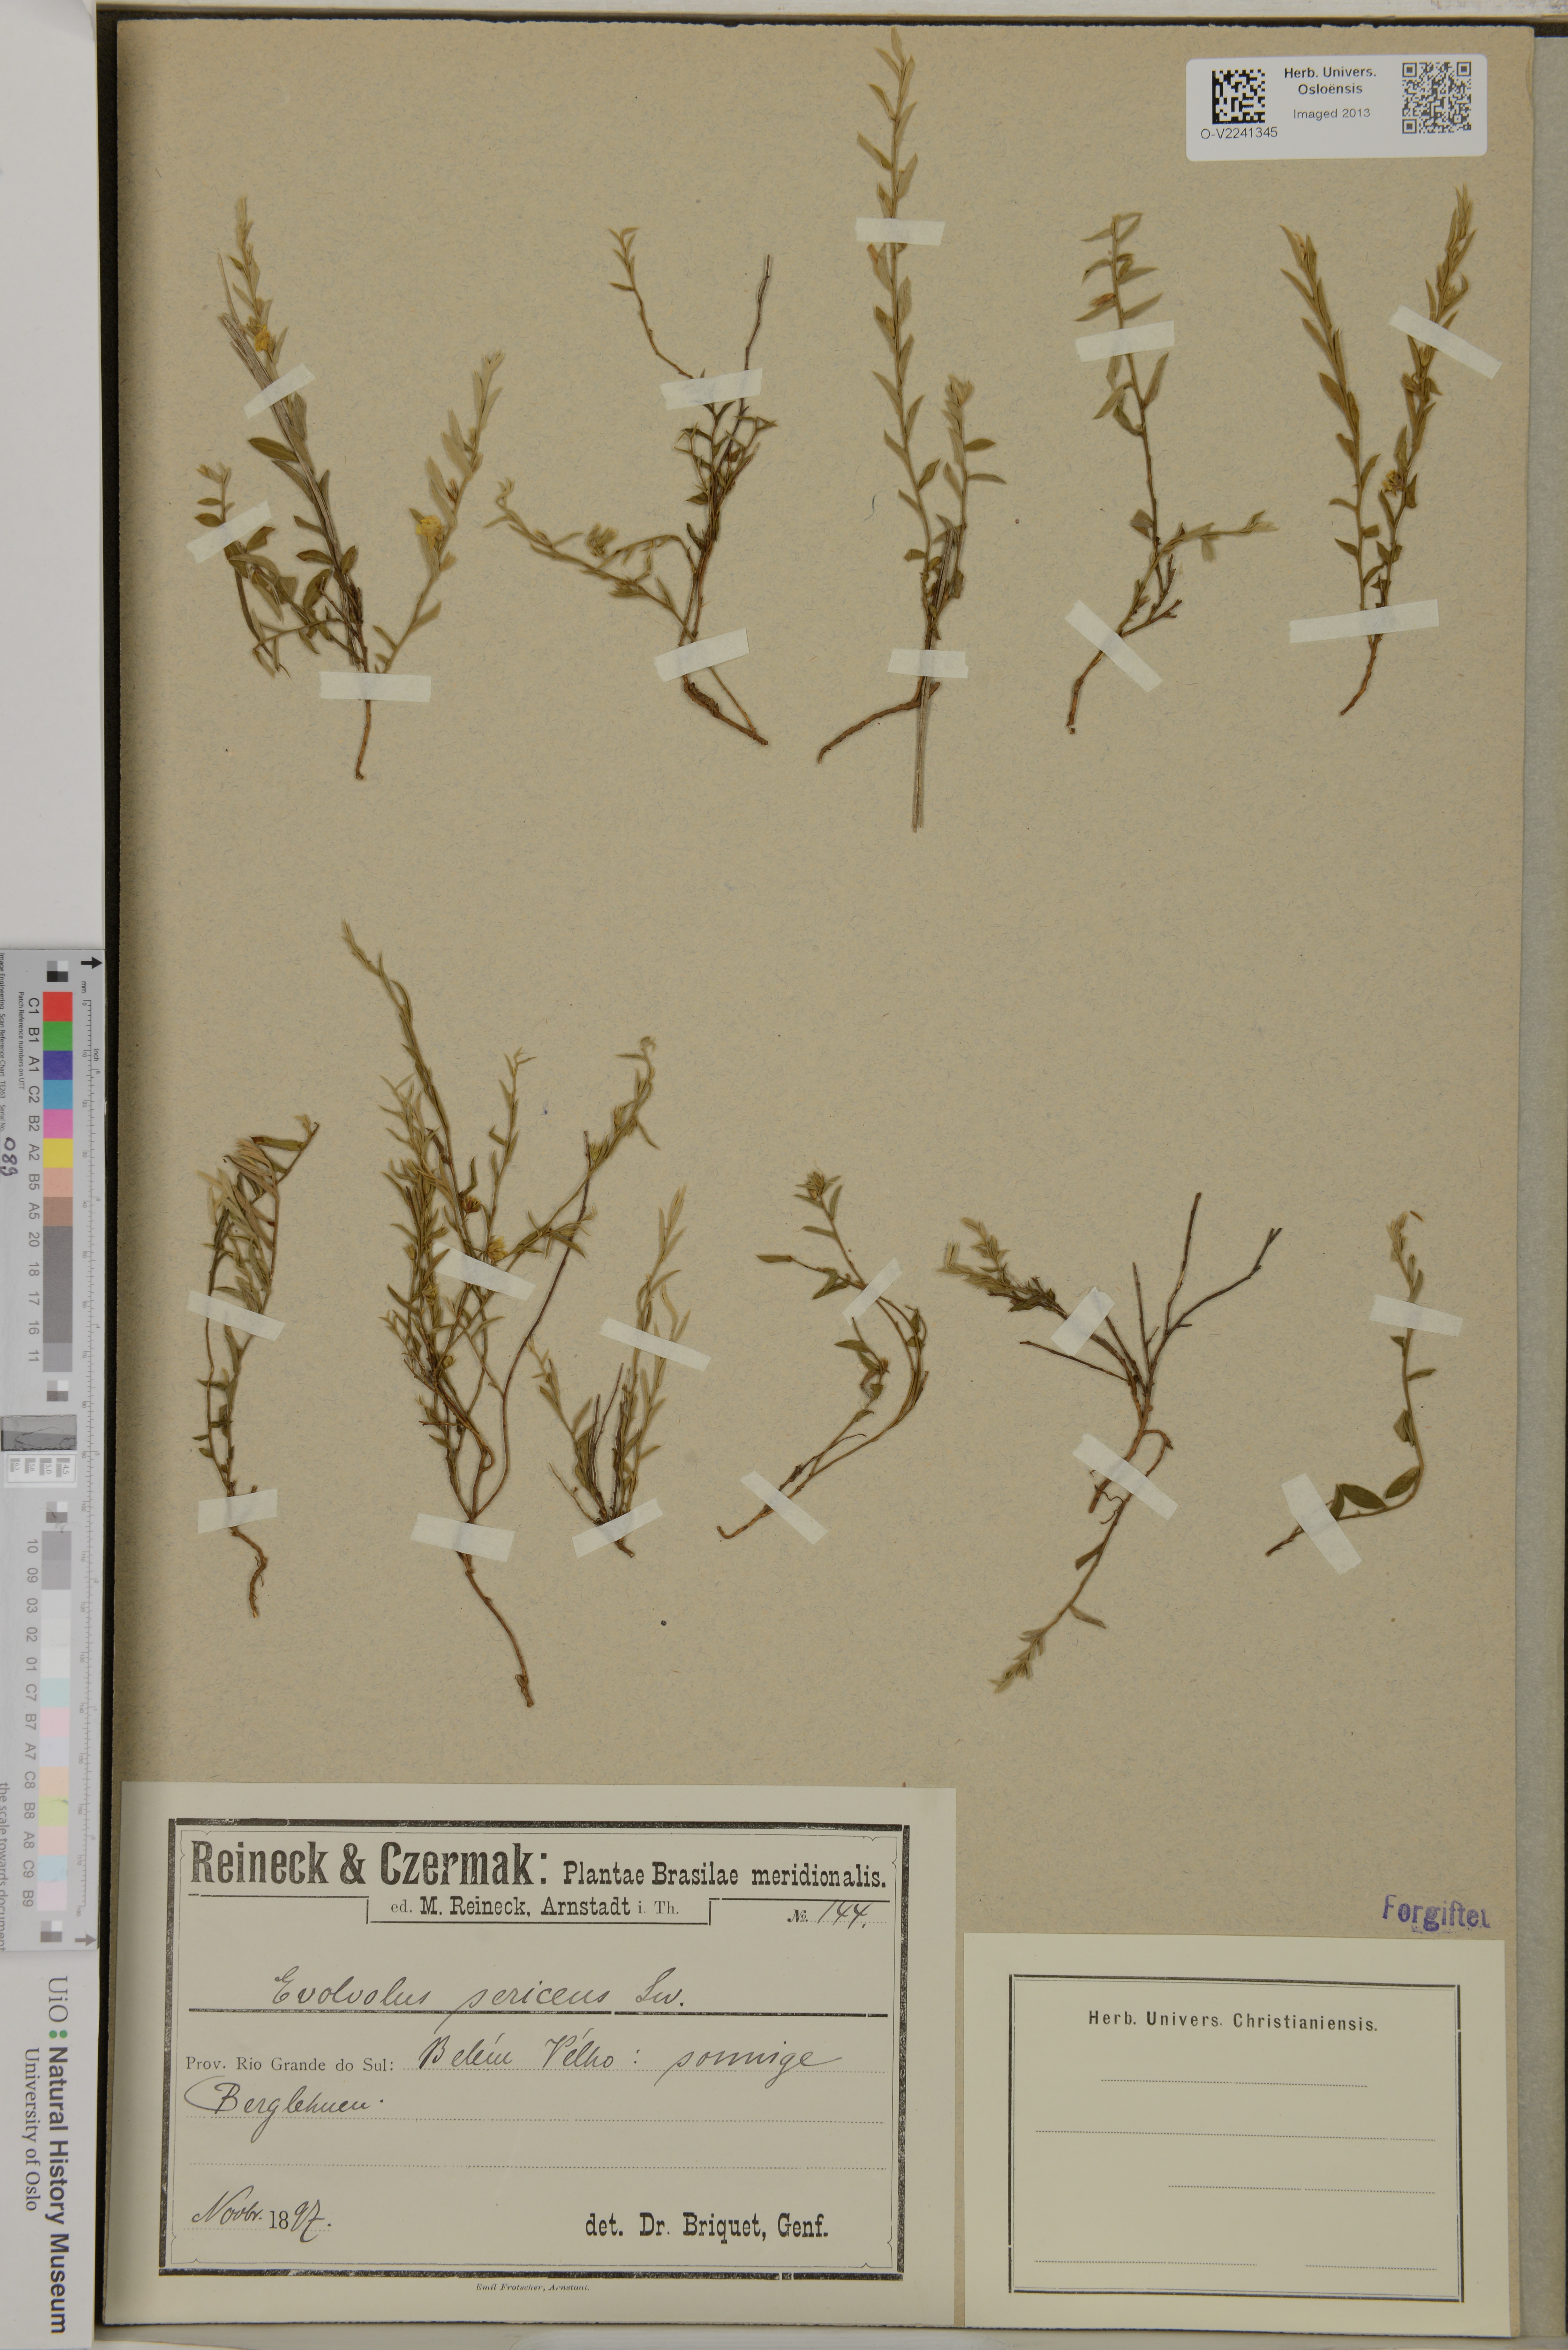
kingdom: Plantae
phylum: Tracheophyta
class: Magnoliopsida
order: Solanales
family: Convolvulaceae
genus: Evolvulus
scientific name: Evolvulus sericeus
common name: Blue dots
